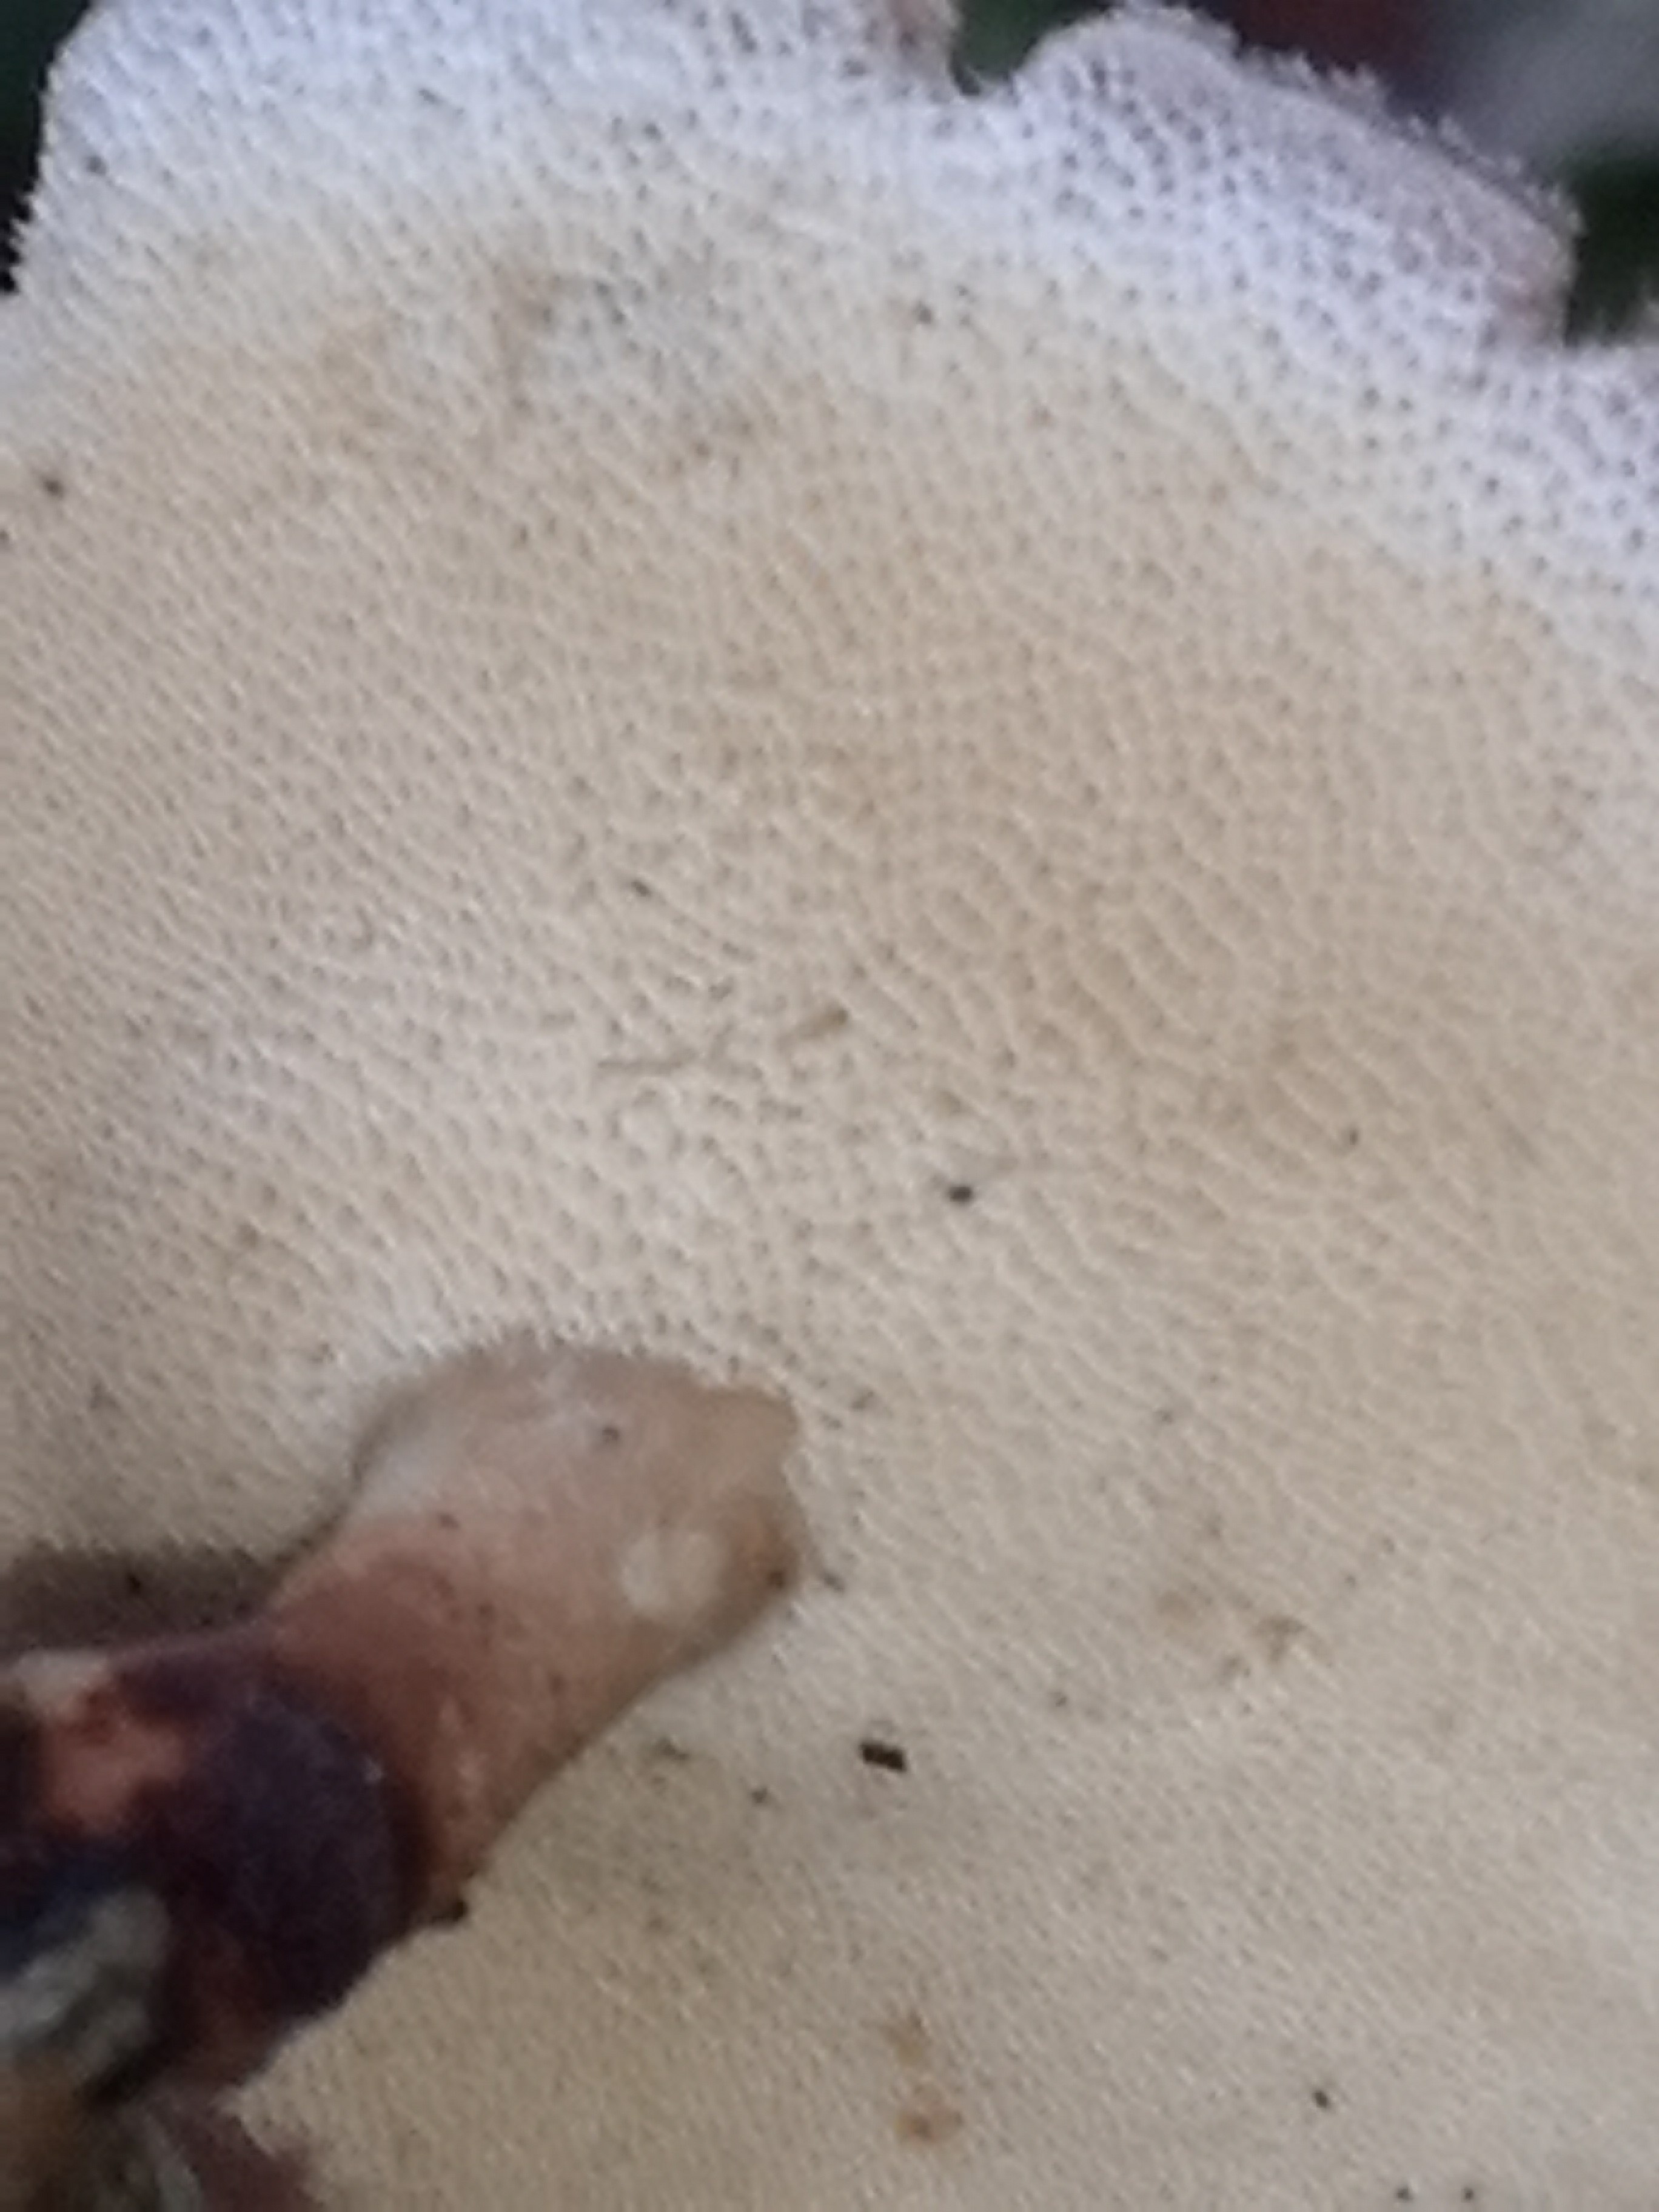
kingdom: Fungi
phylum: Basidiomycota
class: Agaricomycetes
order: Polyporales
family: Polyporaceae
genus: Lentinus
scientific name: Lentinus brumalis
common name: vinter-stilkporesvamp
